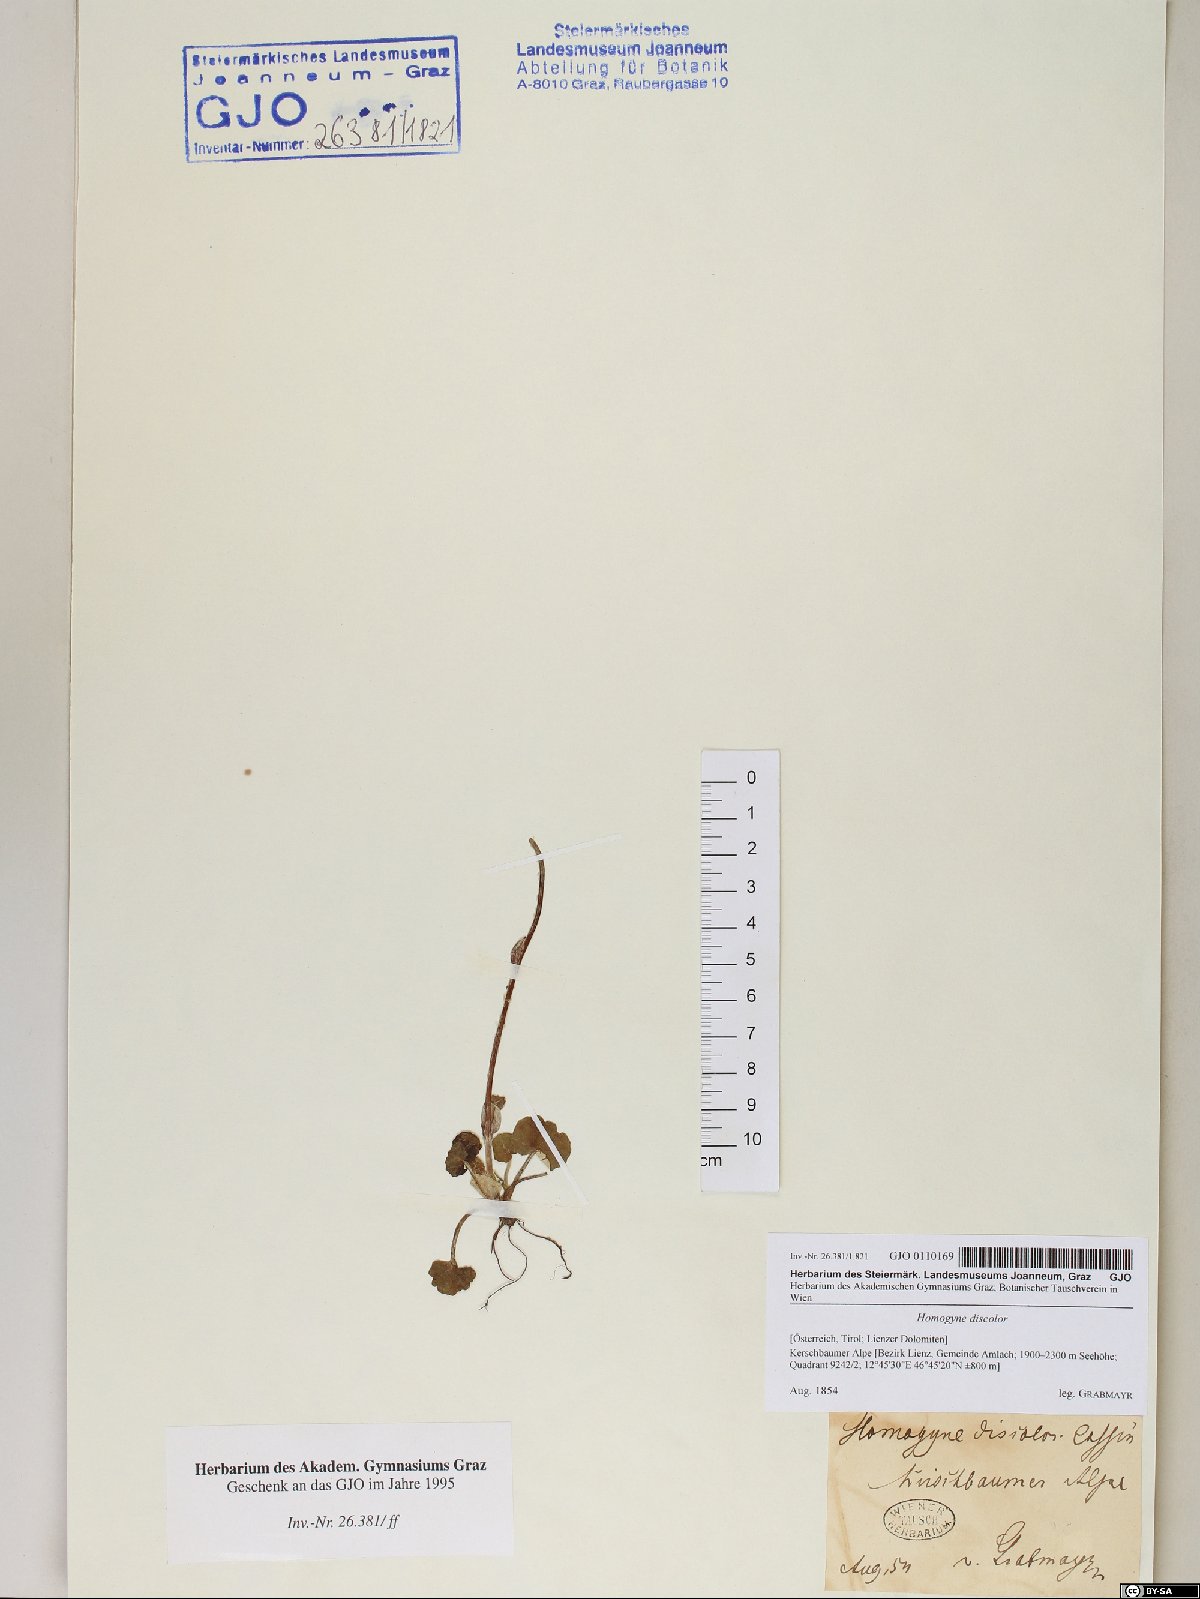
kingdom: Plantae
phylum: Tracheophyta
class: Magnoliopsida
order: Asterales
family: Asteraceae
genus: Homogyne
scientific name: Homogyne discolor
